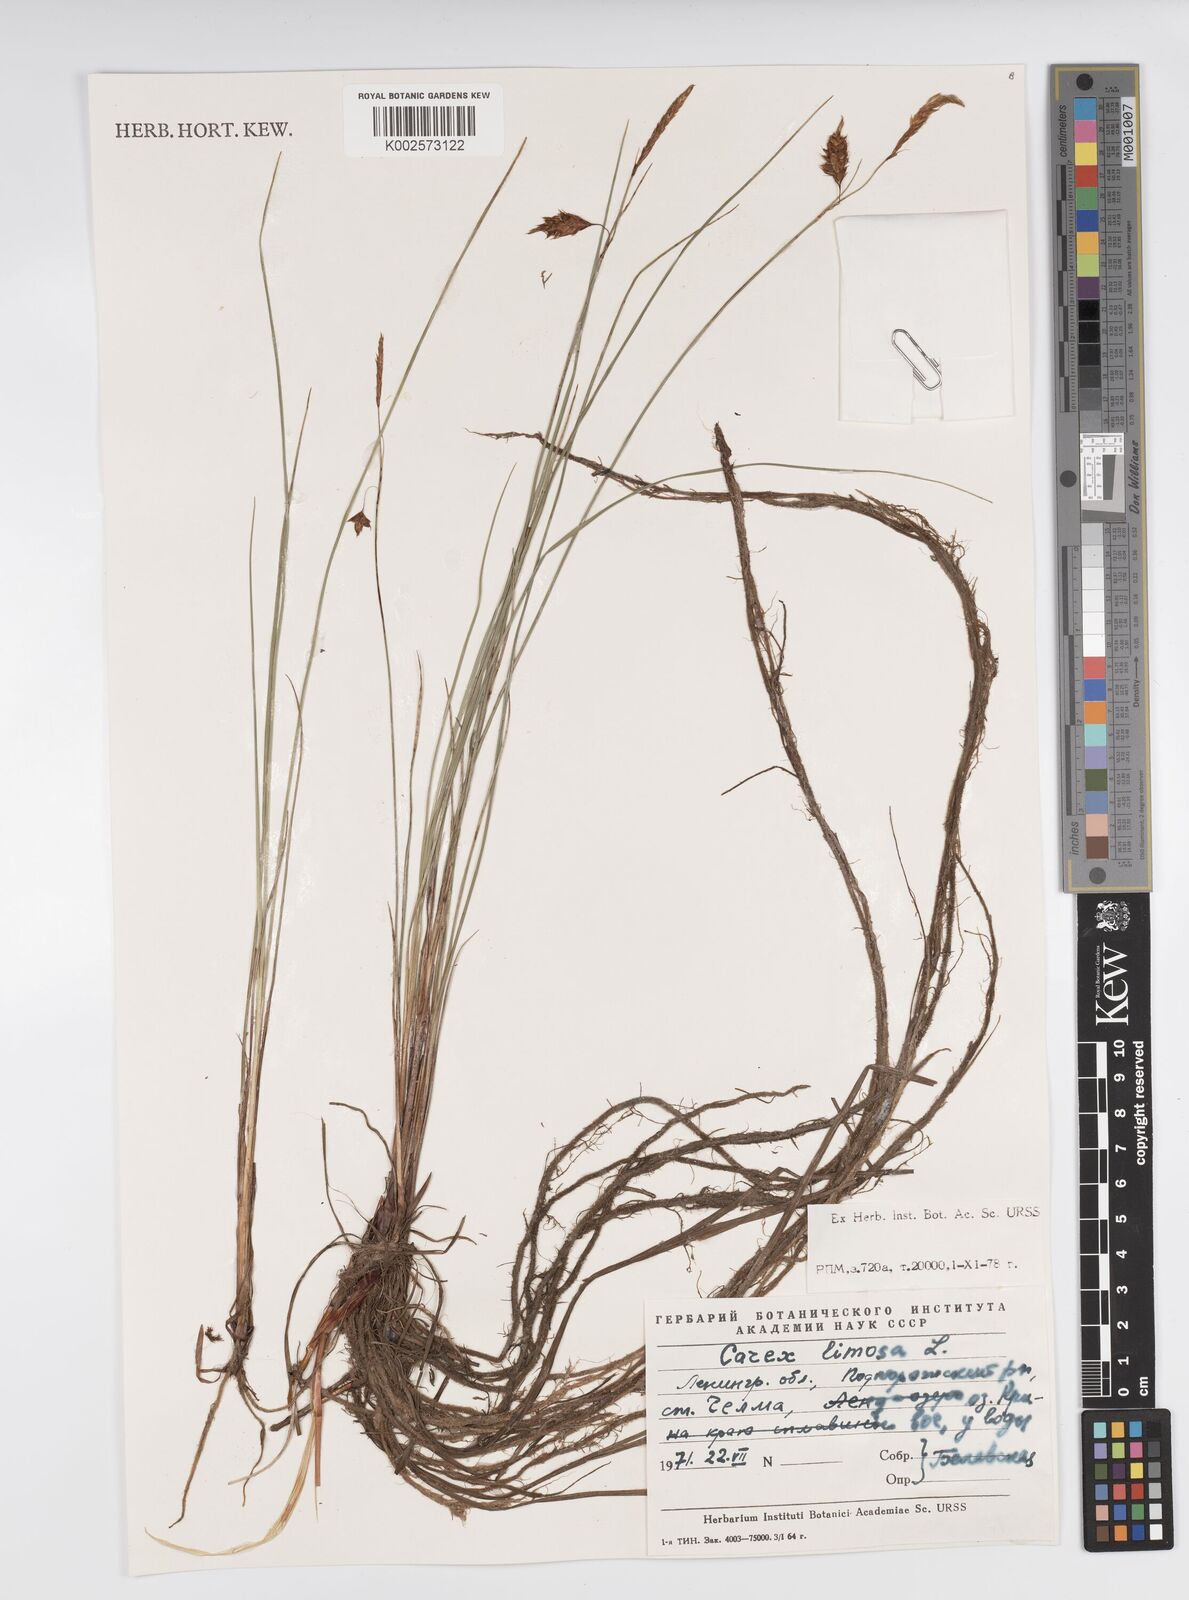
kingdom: Plantae
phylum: Tracheophyta
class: Liliopsida
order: Poales
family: Cyperaceae
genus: Carex
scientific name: Carex limosa
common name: Bog sedge
